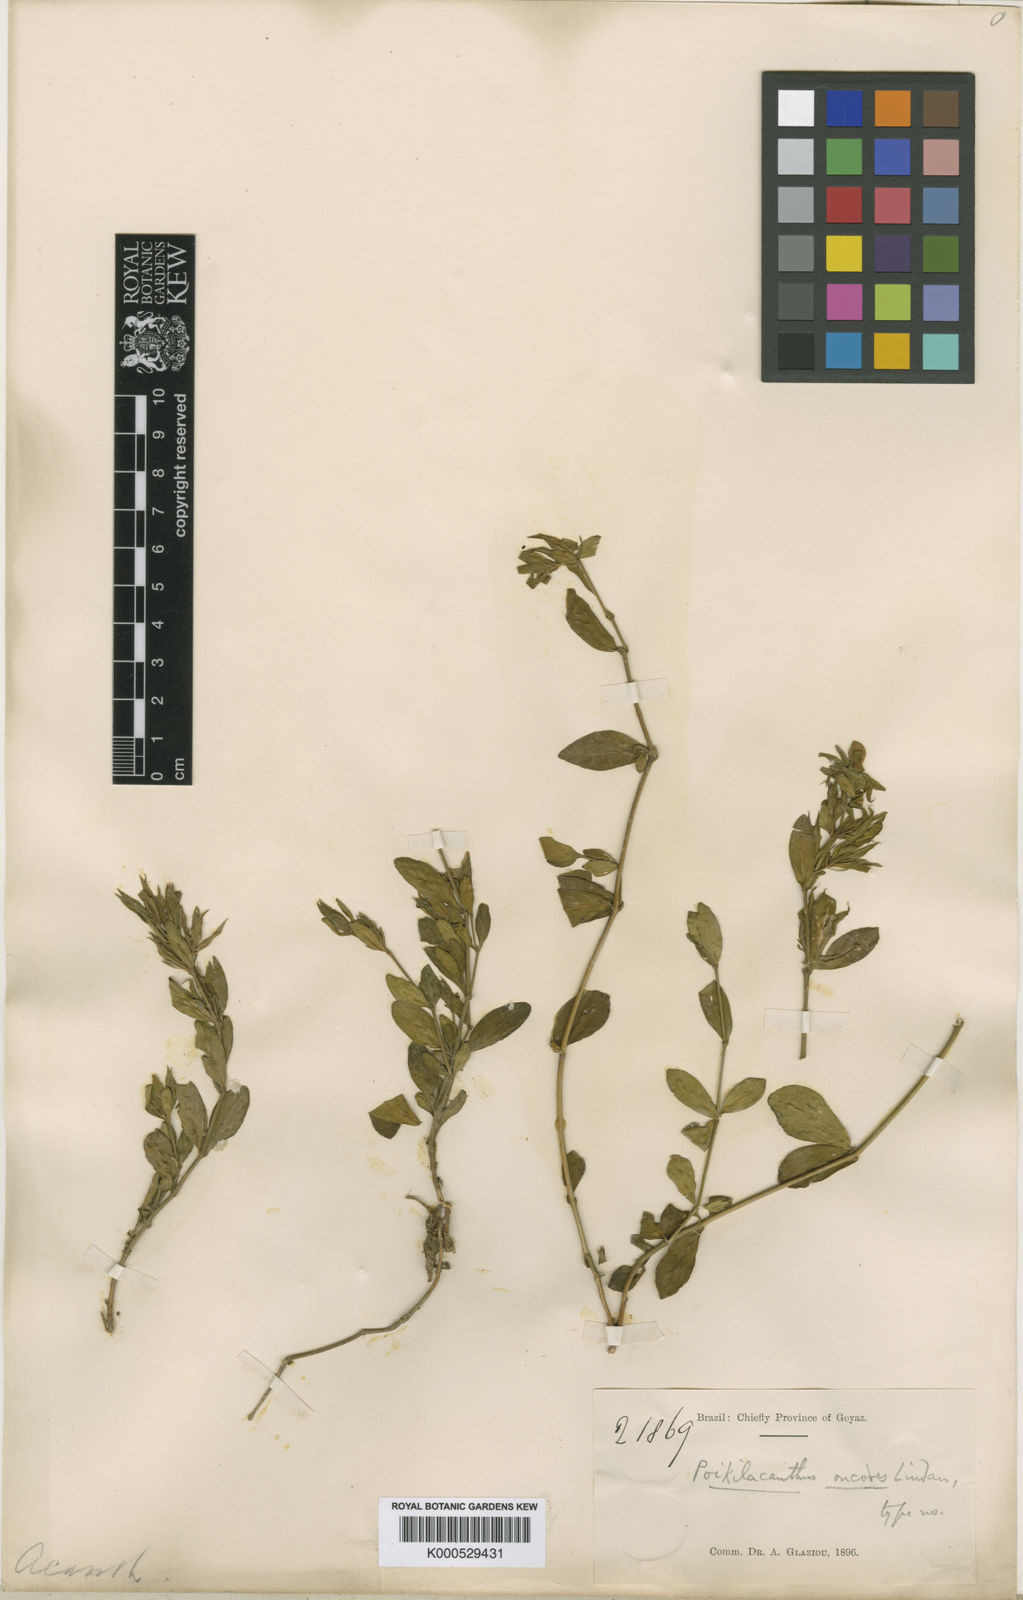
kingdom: Plantae
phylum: Tracheophyta
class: Magnoliopsida
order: Lamiales
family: Acanthaceae
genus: Justicia
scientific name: Justicia oncodes
